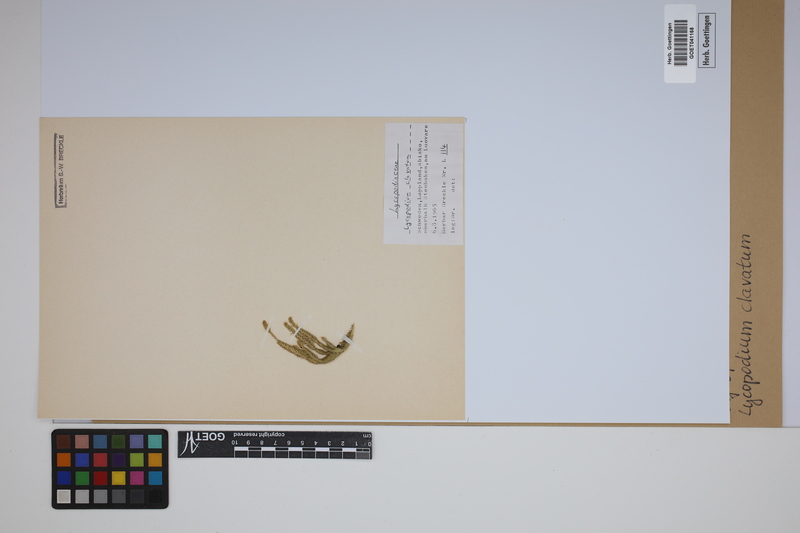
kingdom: Plantae
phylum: Tracheophyta
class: Lycopodiopsida
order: Lycopodiales
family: Lycopodiaceae
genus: Lycopodium
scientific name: Lycopodium clavatum
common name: Stag's-horn clubmoss
